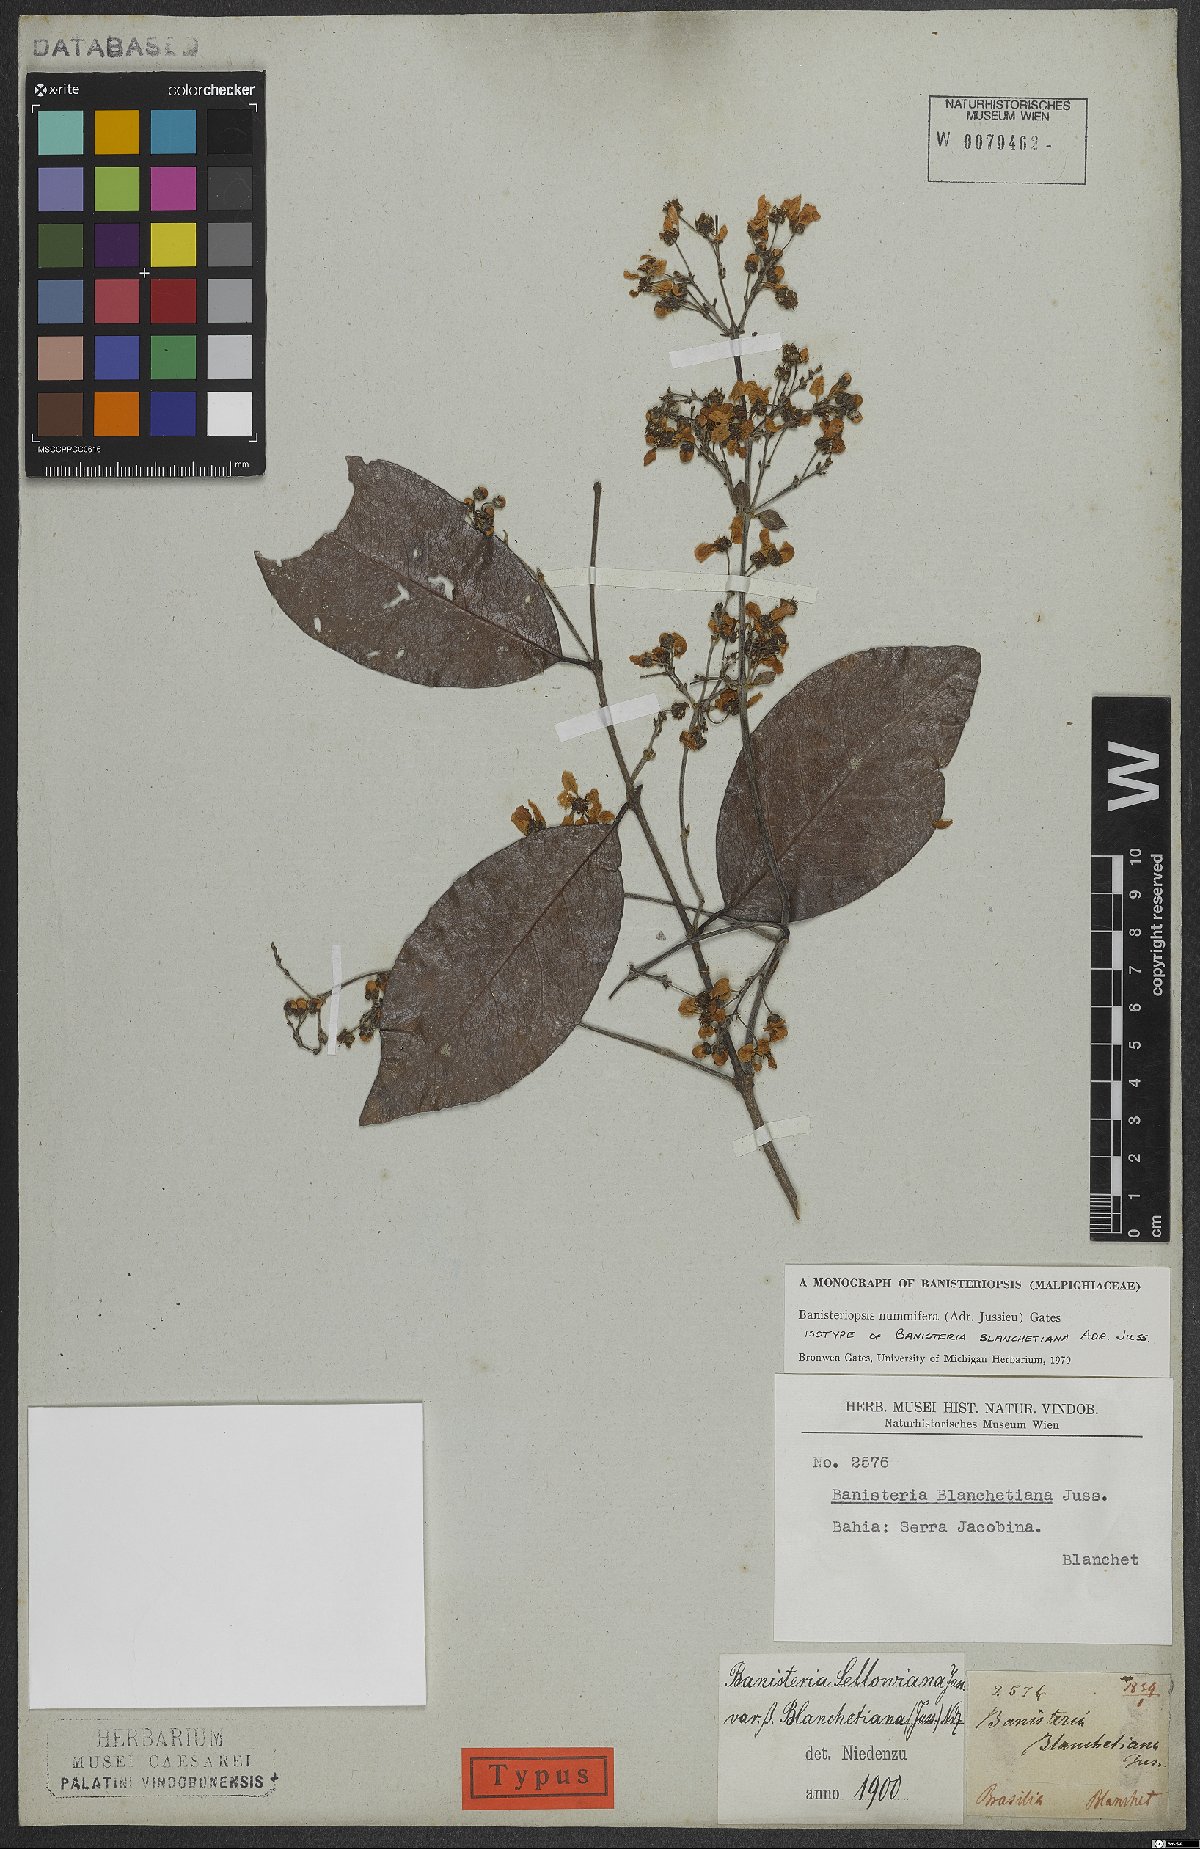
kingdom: Plantae
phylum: Tracheophyta
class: Magnoliopsida
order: Malpighiales
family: Malpighiaceae
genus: Banisteriopsis
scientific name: Banisteriopsis nummifera
